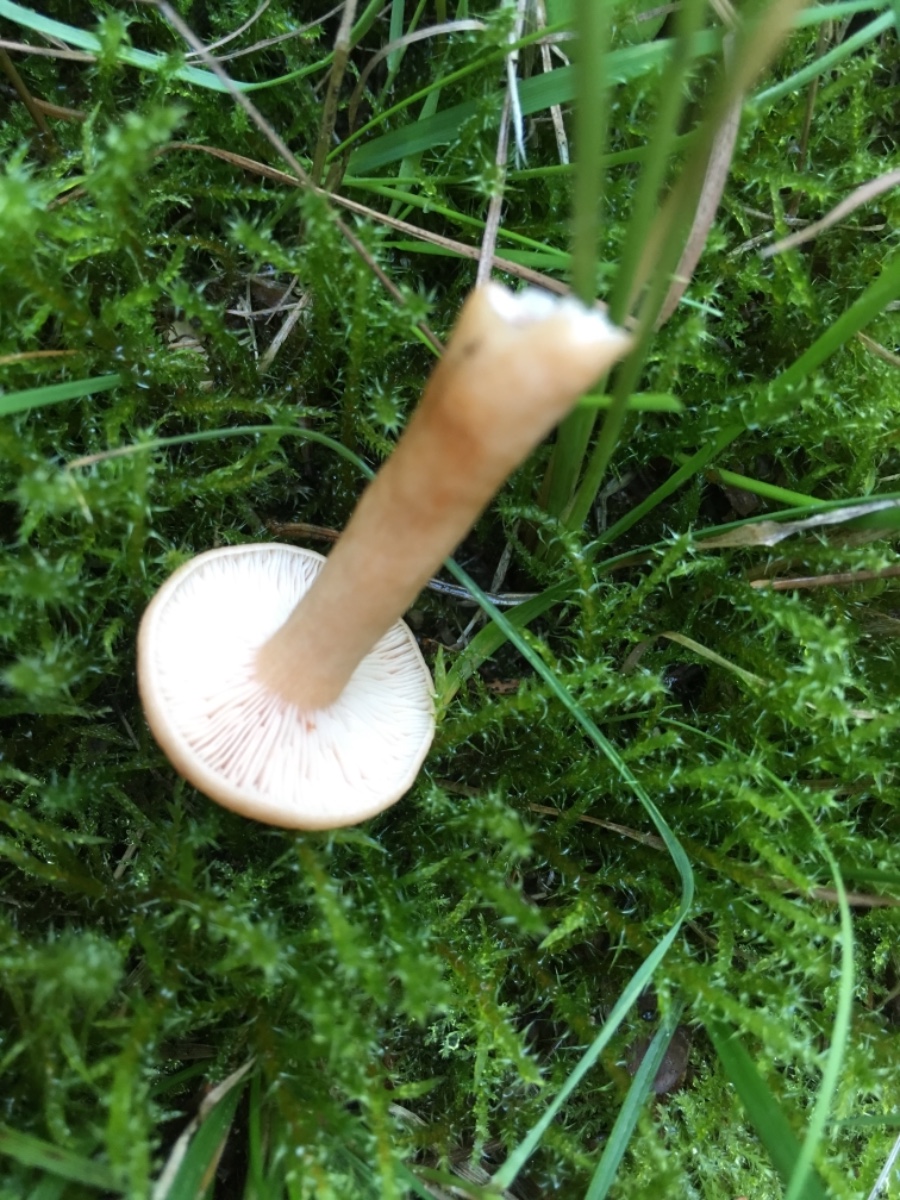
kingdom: Fungi
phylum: Basidiomycota
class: Agaricomycetes
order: Russulales
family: Russulaceae
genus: Lactarius
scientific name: Lactarius tabidus
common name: rynket mælkehat
